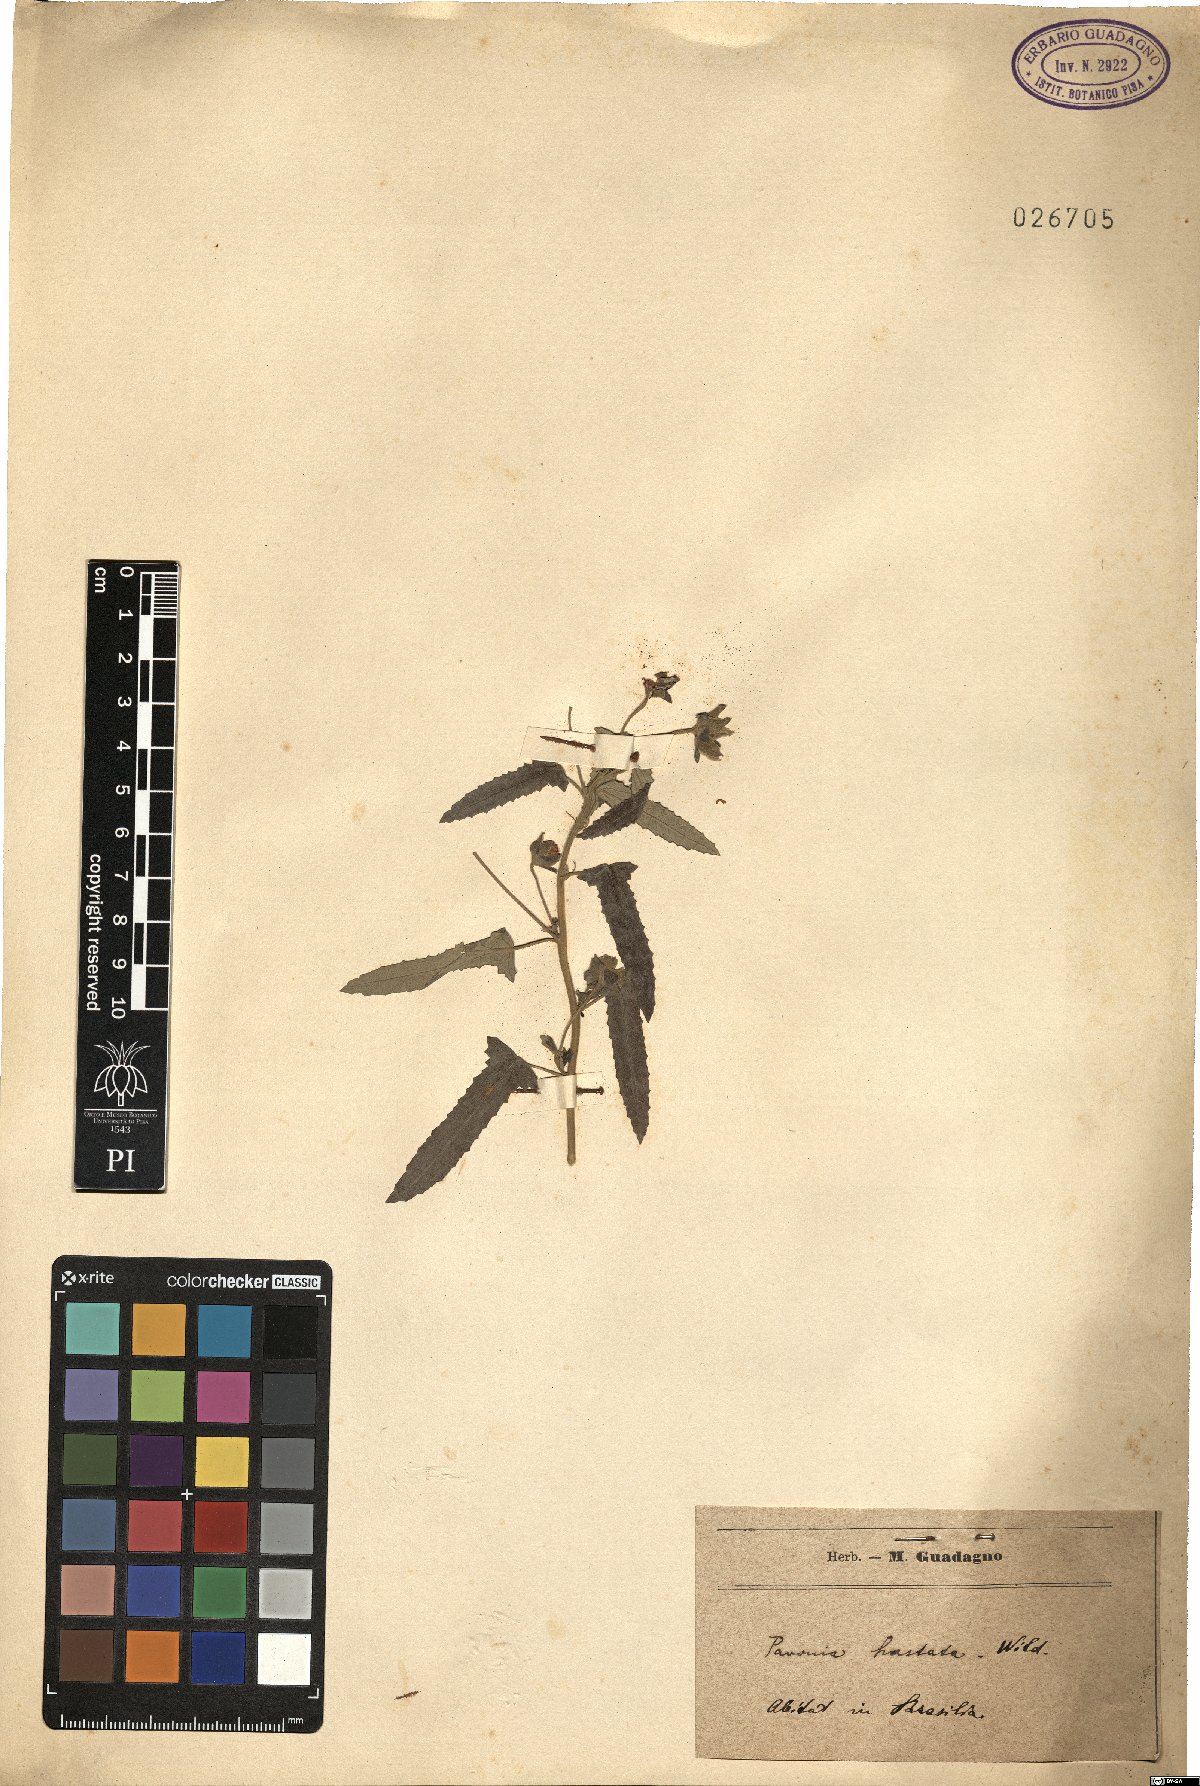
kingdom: Plantae
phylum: Tracheophyta
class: Magnoliopsida
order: Malvales
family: Malvaceae
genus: Pavonia
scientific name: Pavonia hastata
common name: Spearleaf swampmallow
